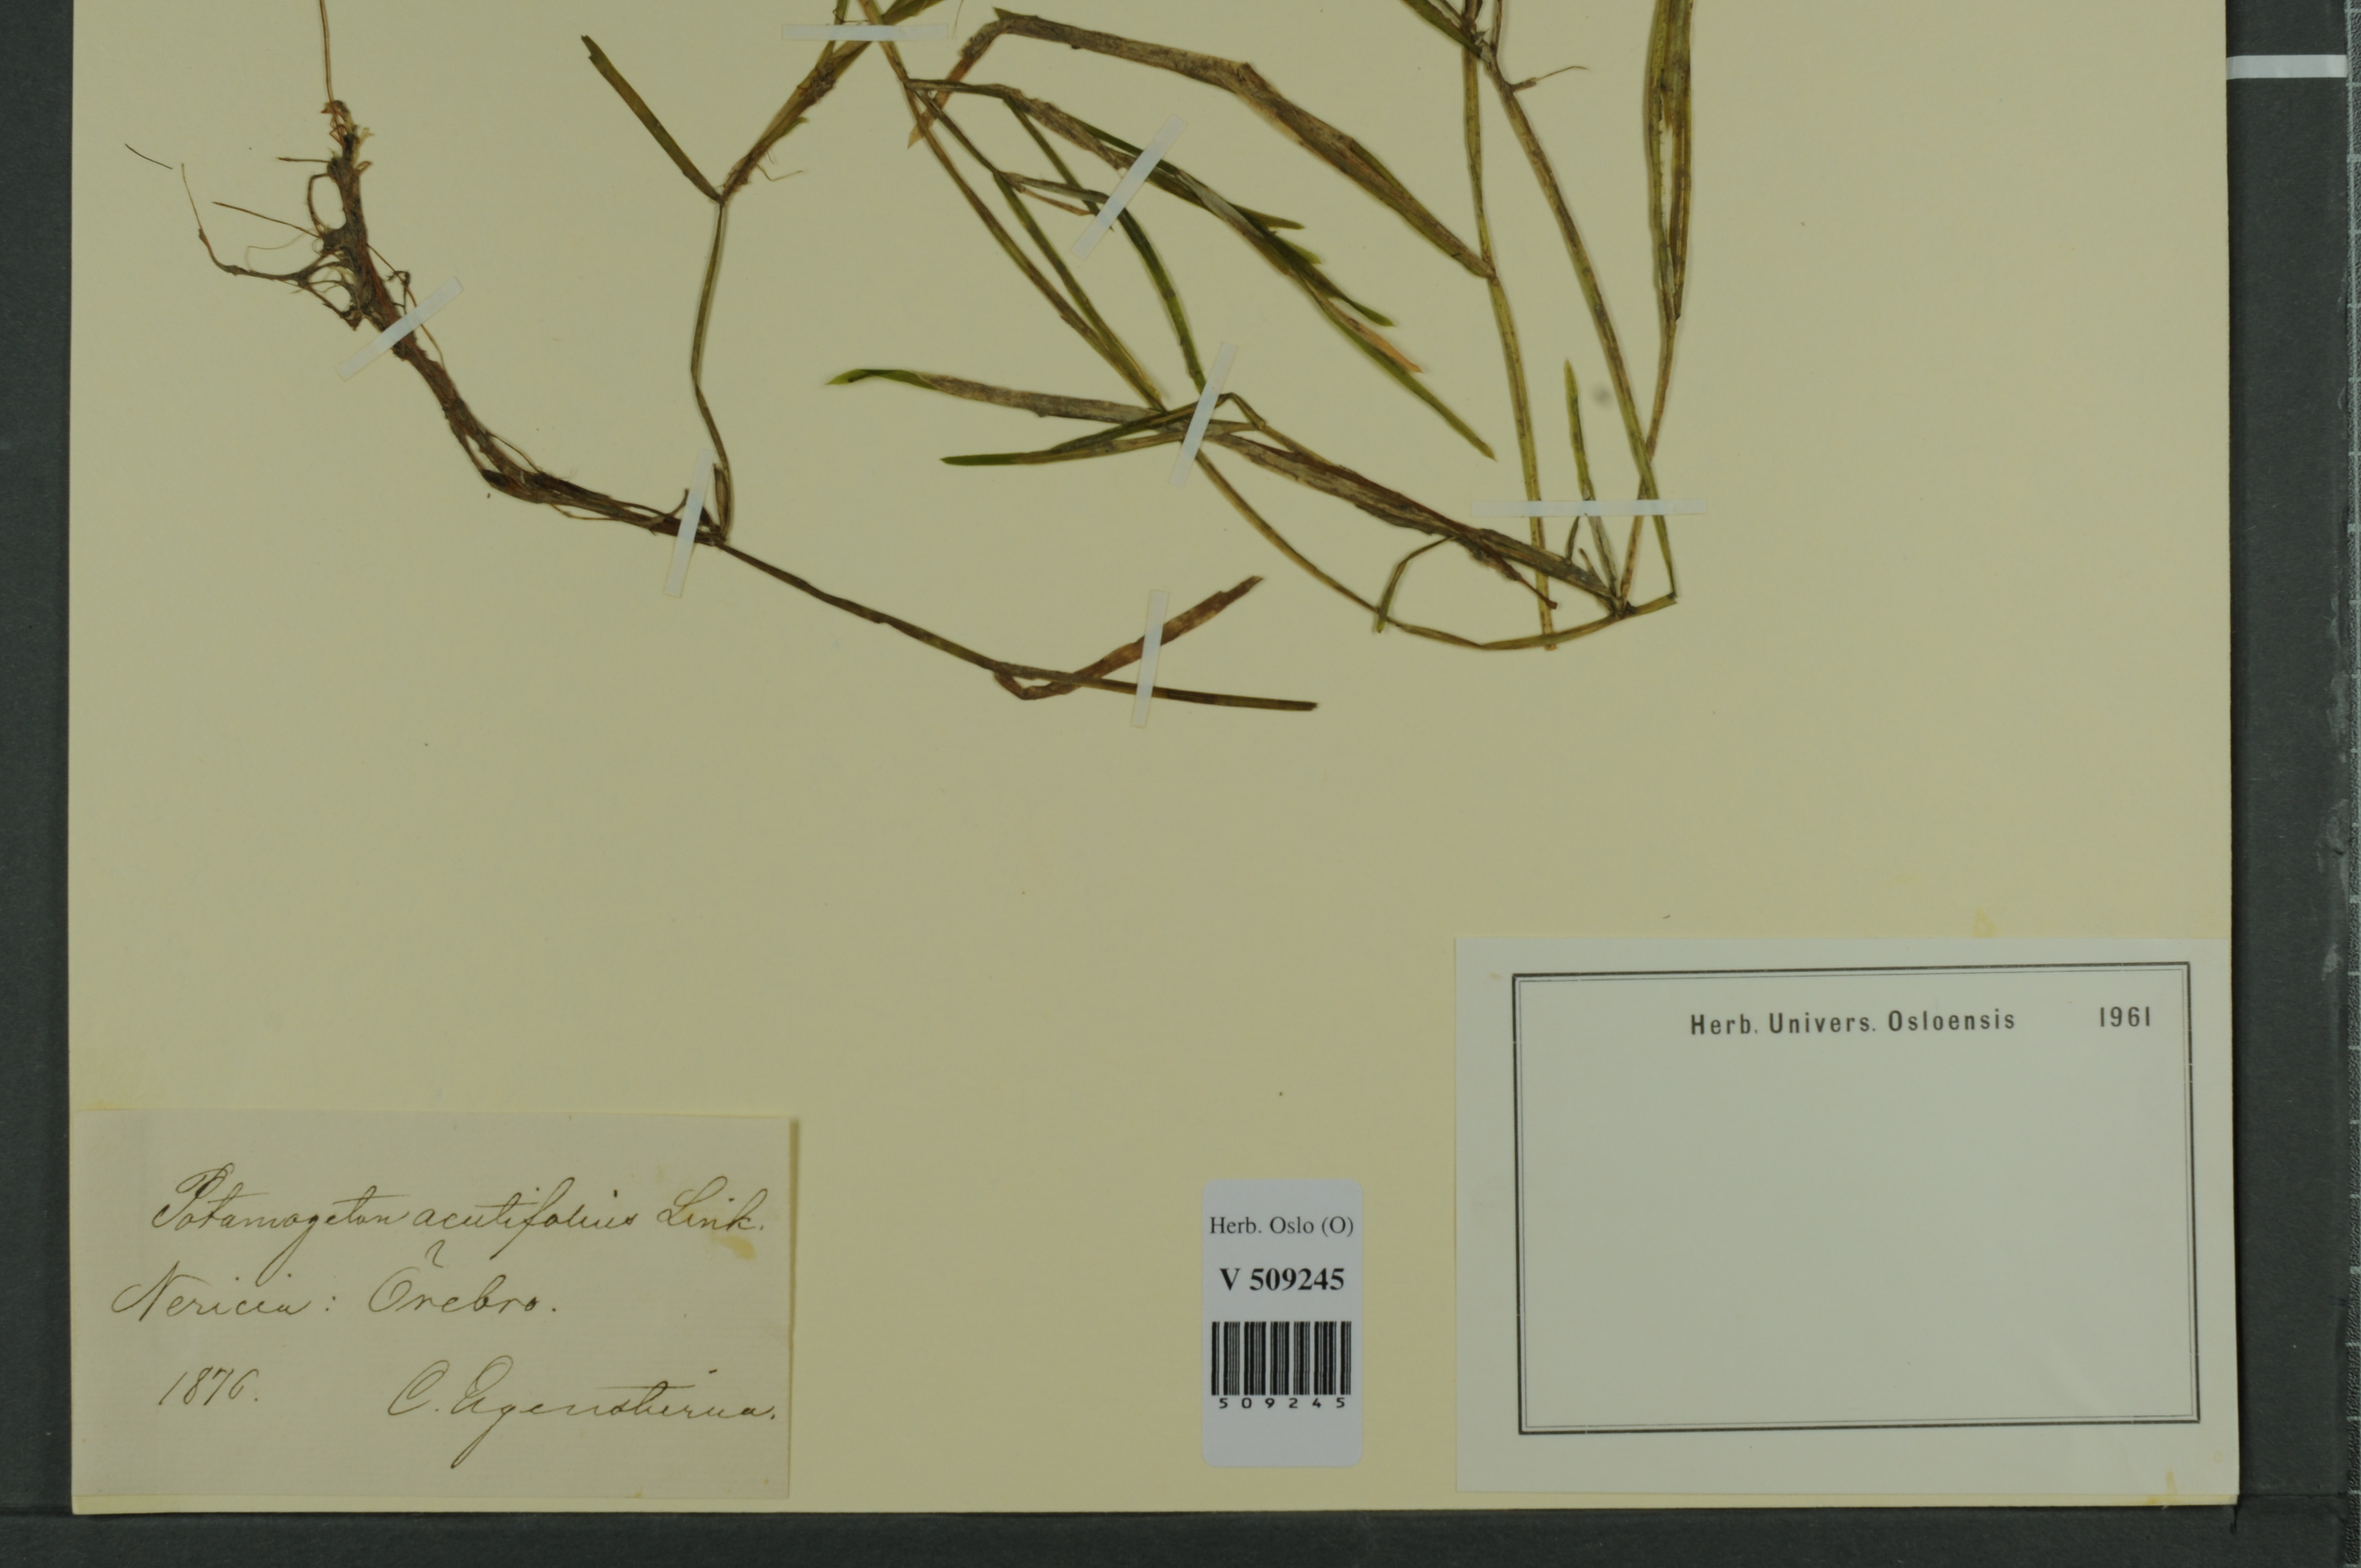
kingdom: Plantae
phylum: Tracheophyta
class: Liliopsida
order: Alismatales
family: Potamogetonaceae
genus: Potamogeton
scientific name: Potamogeton acutifolius
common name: Sharp-leaved pondweed
